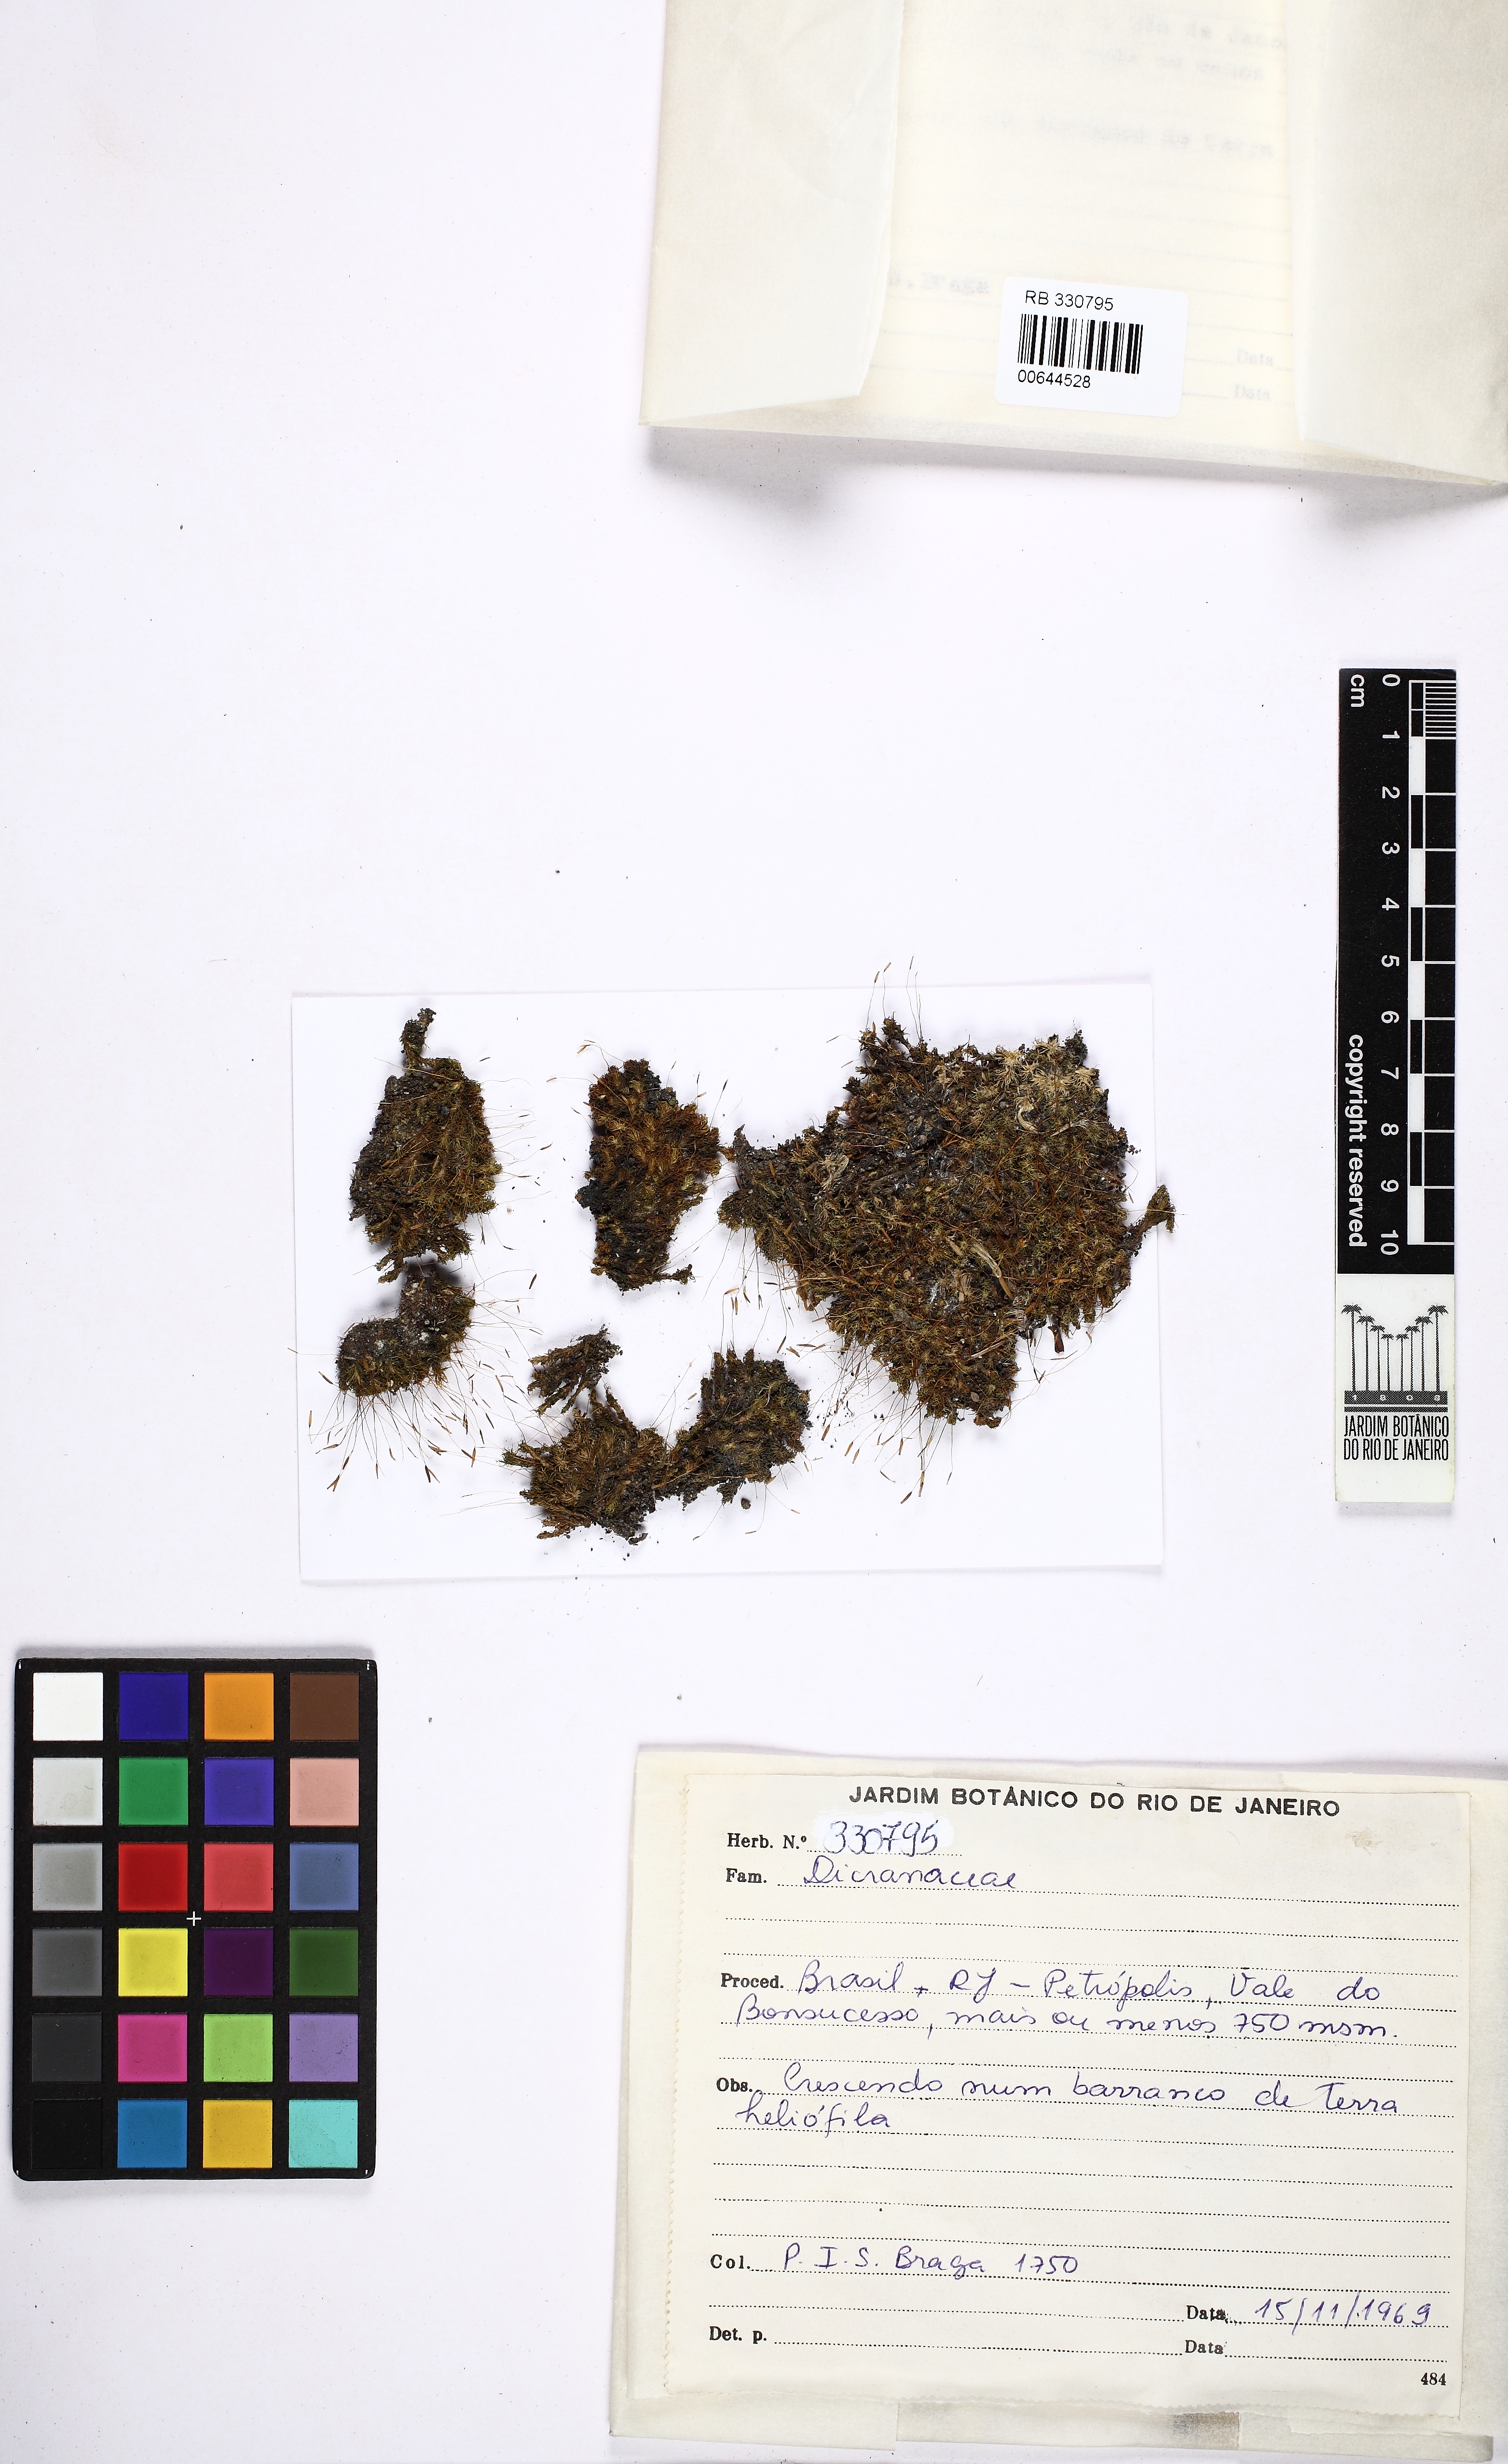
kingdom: Plantae
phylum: Bryophyta
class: Bryopsida
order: Dicranales
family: Dicranaceae
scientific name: Dicranaceae
